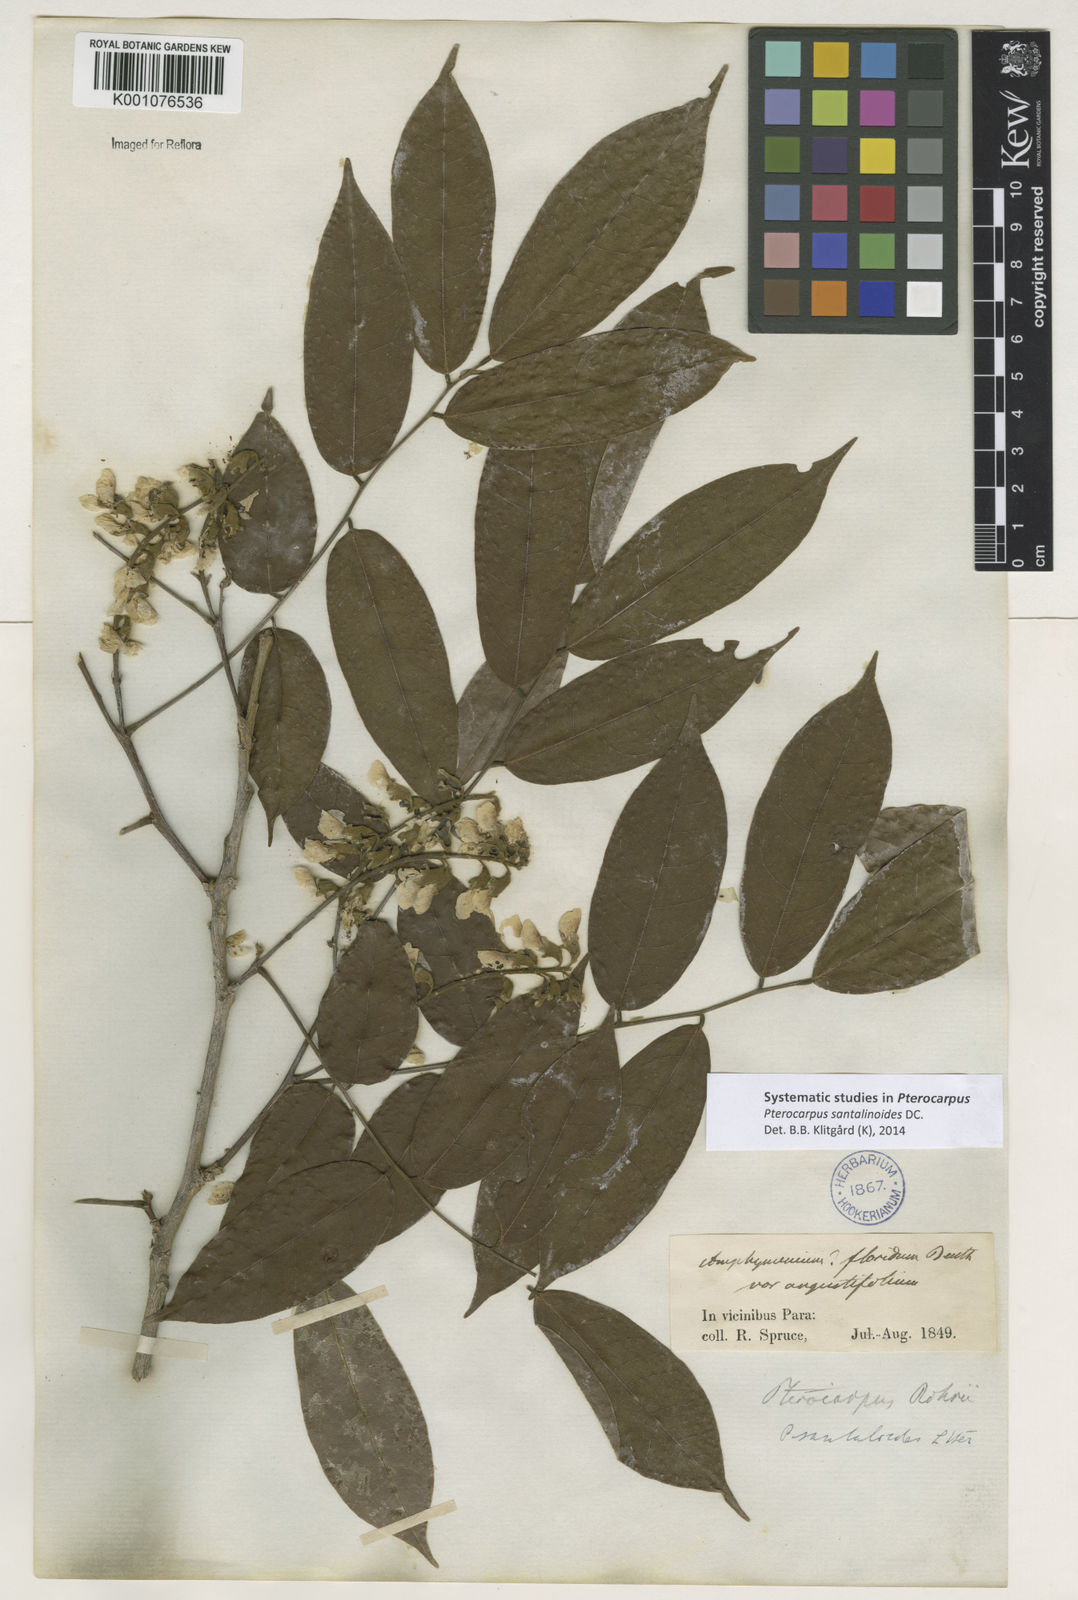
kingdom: Plantae
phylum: Tracheophyta
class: Magnoliopsida
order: Fabales
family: Fabaceae
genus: Pterocarpus
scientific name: Pterocarpus santalinoides
